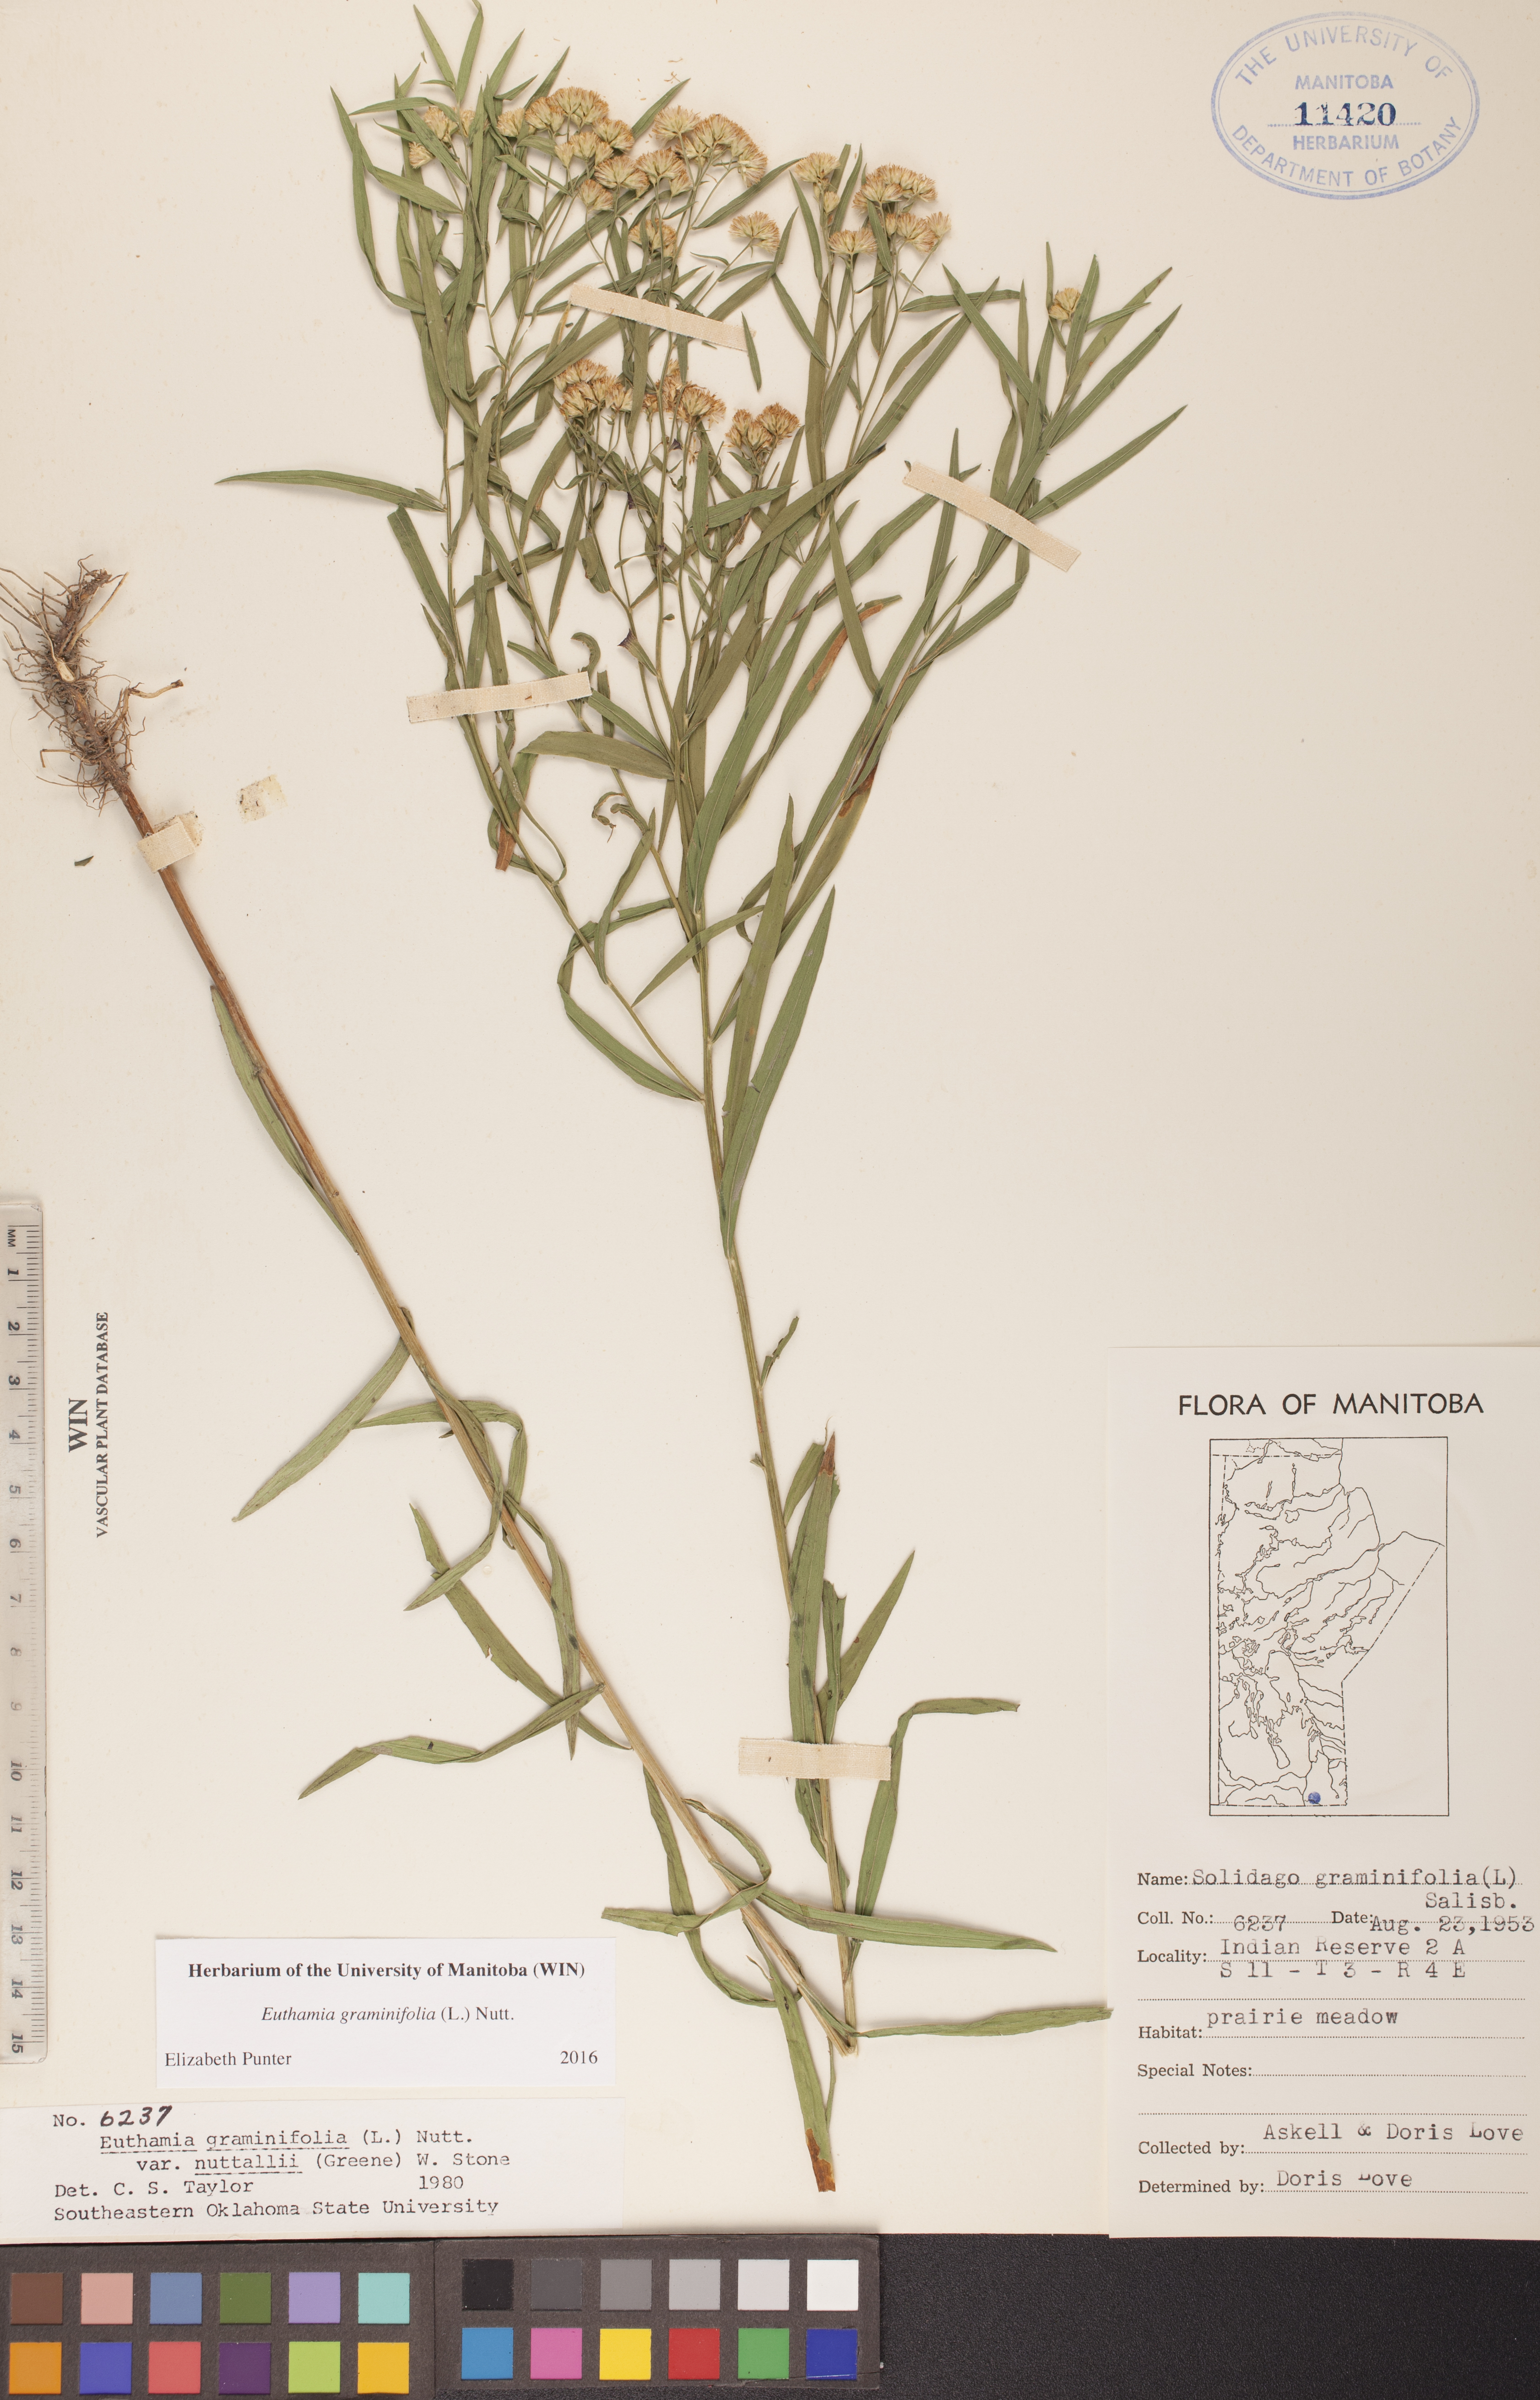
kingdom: Plantae
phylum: Tracheophyta
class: Magnoliopsida
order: Asterales
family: Asteraceae
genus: Euthamia
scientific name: Euthamia graminifolia
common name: Common goldentop
